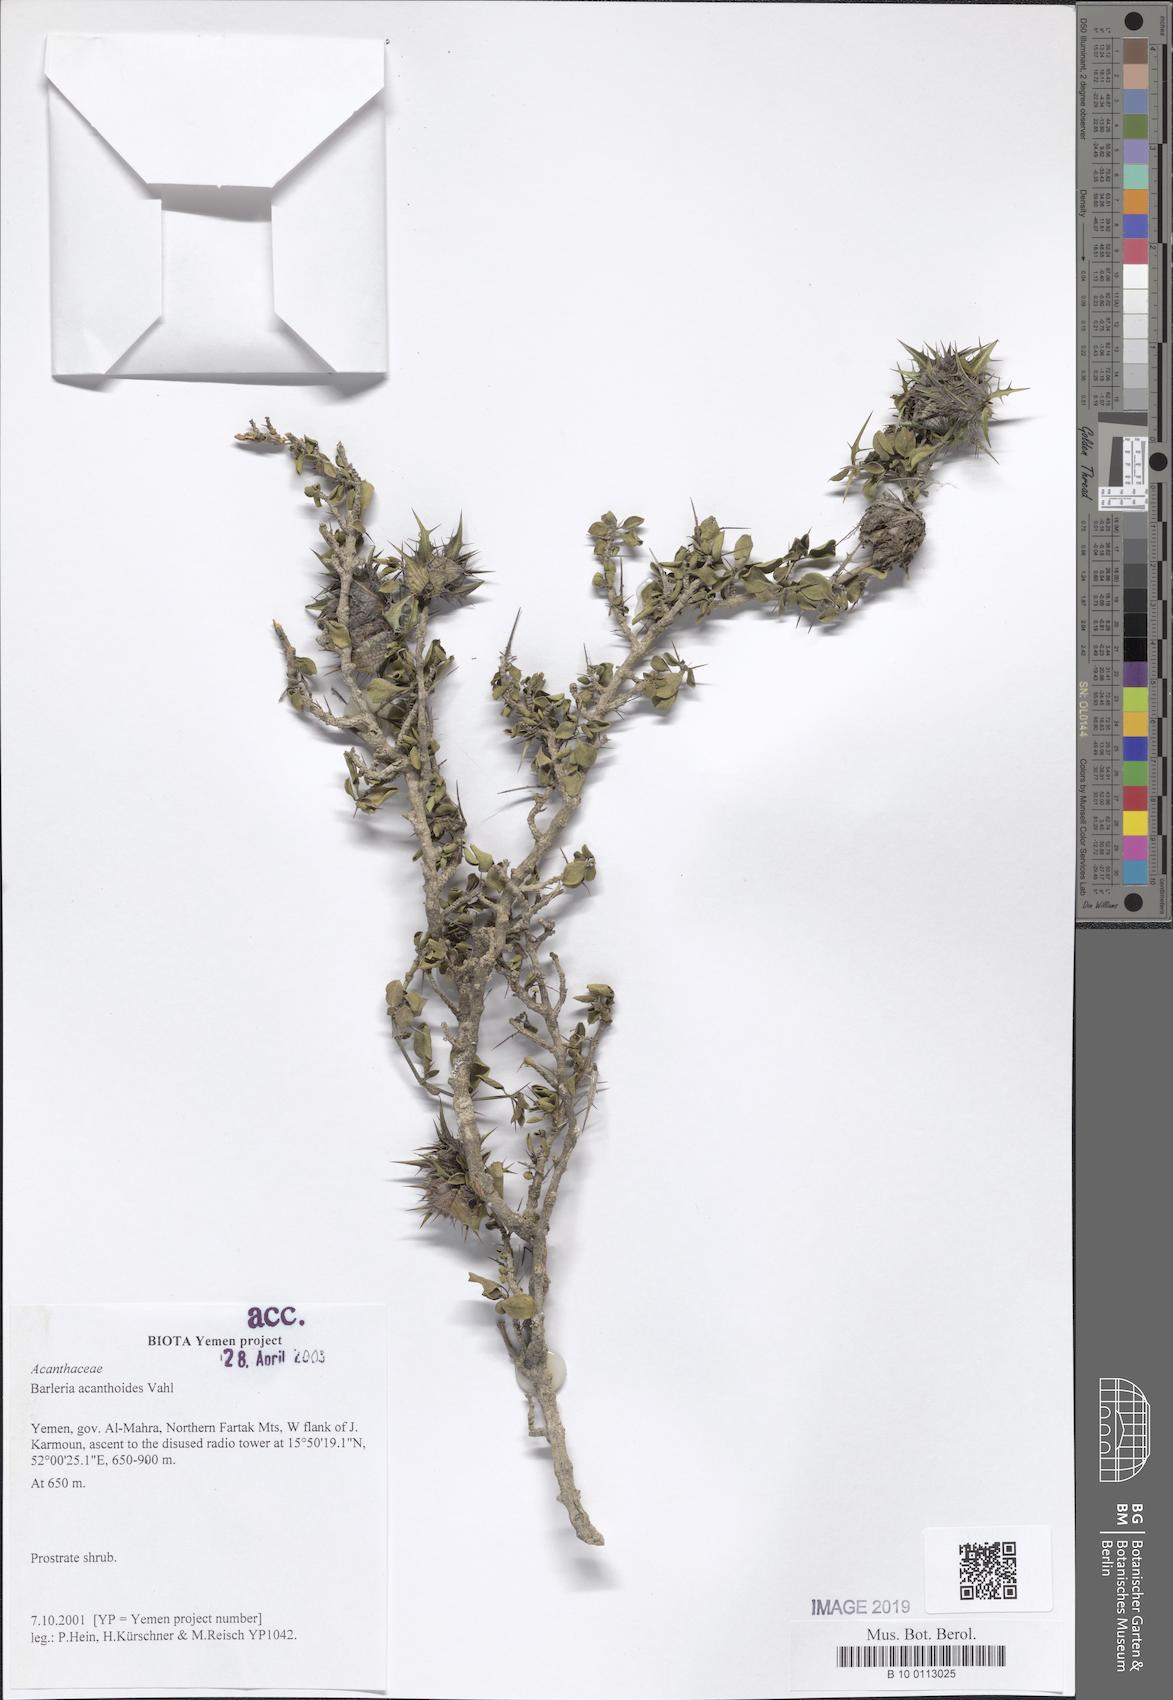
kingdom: Plantae
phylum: Tracheophyta
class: Magnoliopsida
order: Lamiales
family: Acanthaceae
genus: Barleria
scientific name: Barleria acanthoides
